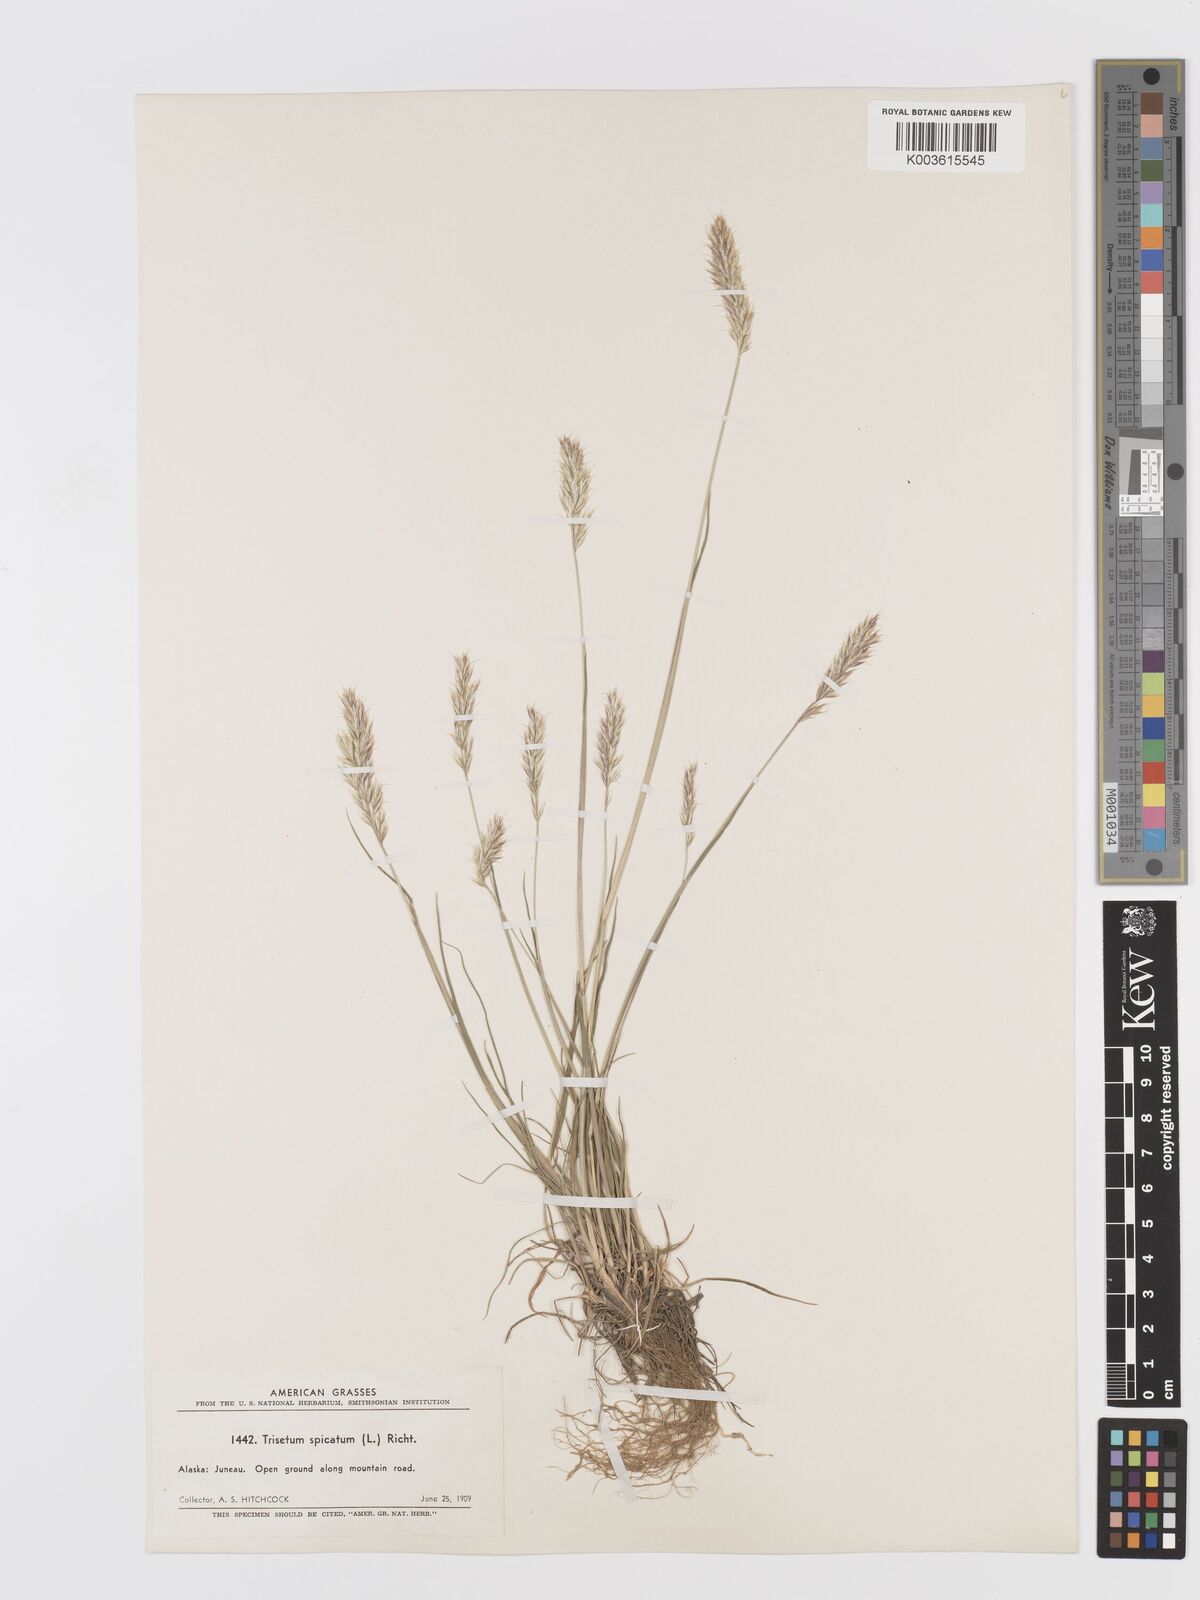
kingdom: Plantae
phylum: Tracheophyta
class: Liliopsida
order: Poales
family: Poaceae
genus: Koeleria
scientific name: Koeleria spicata
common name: Mountain trisetum
